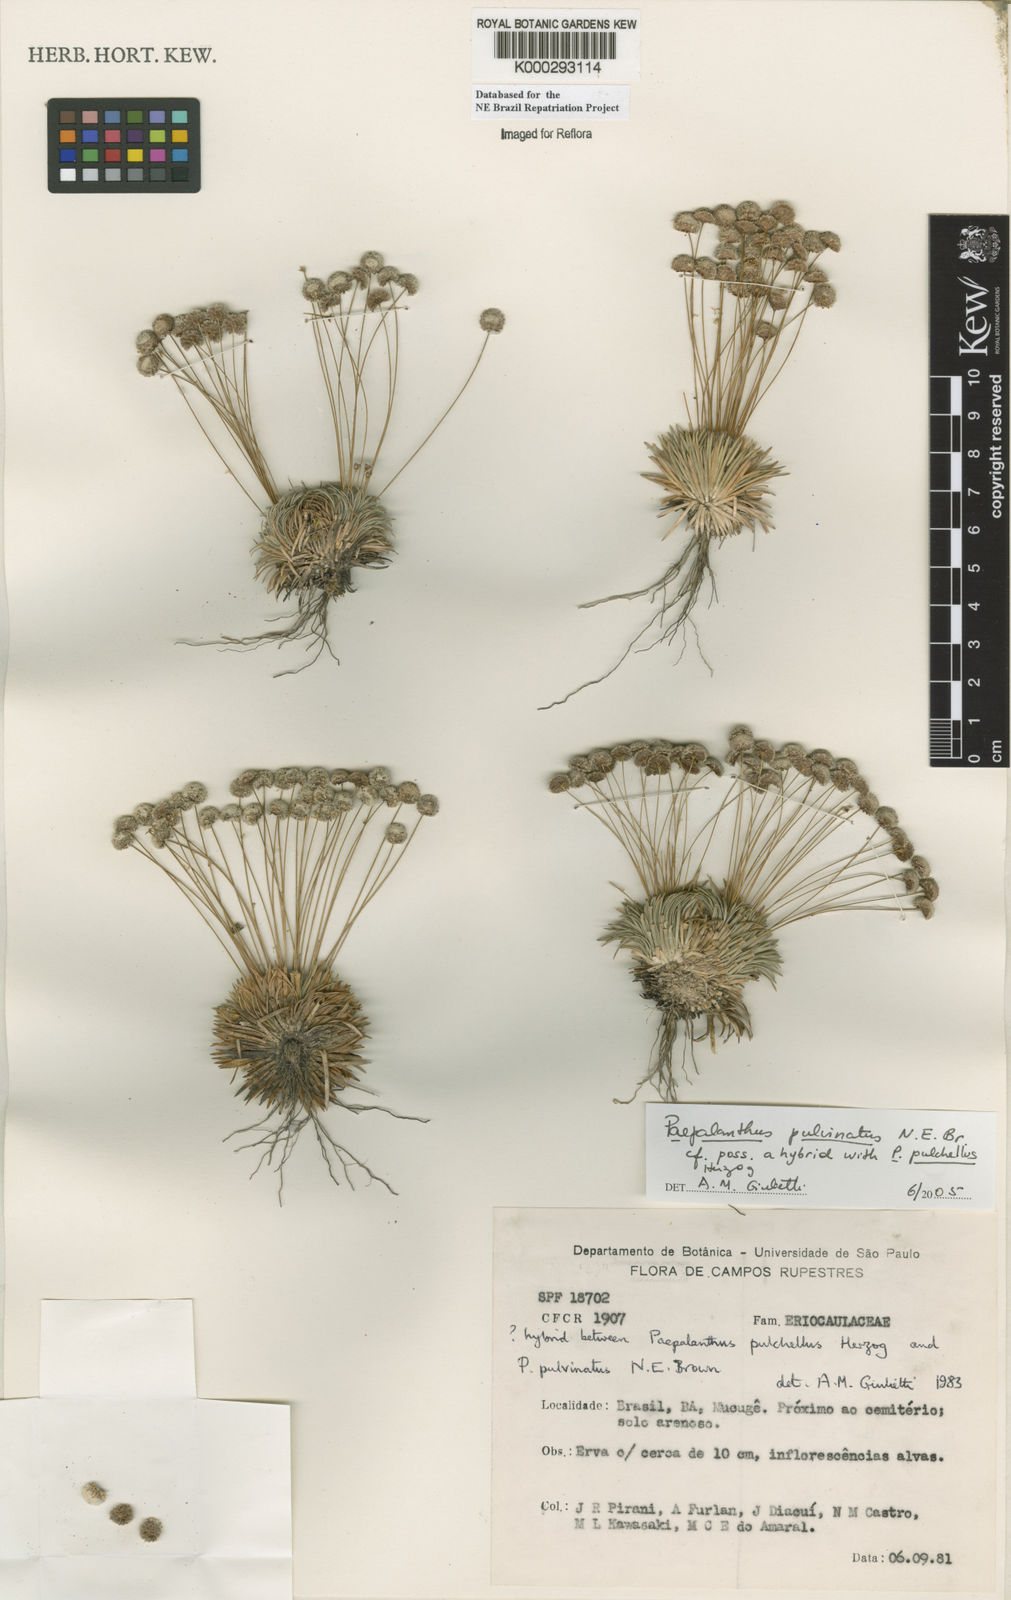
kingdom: Plantae
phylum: Tracheophyta
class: Liliopsida
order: Poales
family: Eriocaulaceae
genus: Paepalanthus
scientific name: Paepalanthus pulvinatus
